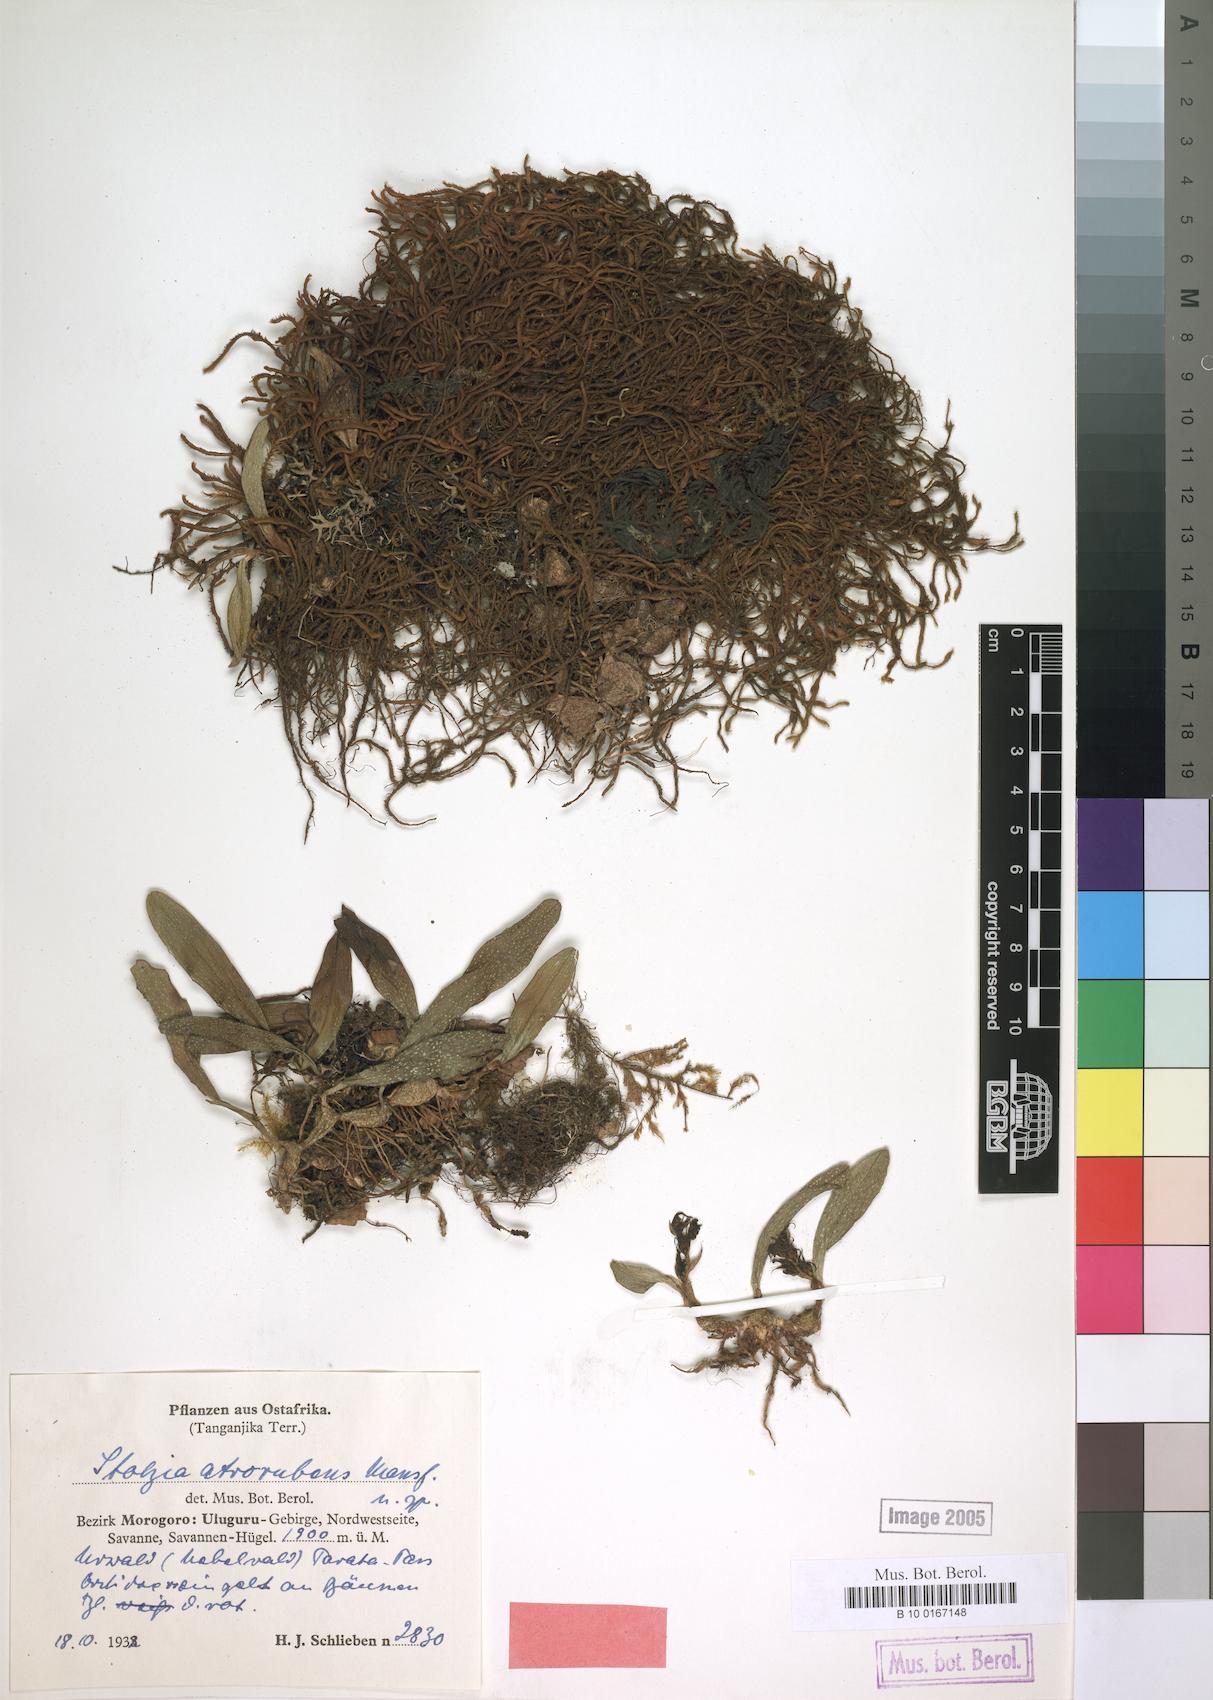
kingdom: Plantae
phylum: Tracheophyta
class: Liliopsida
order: Asparagales
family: Orchidaceae
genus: Porpax
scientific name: Porpax atrorubra
